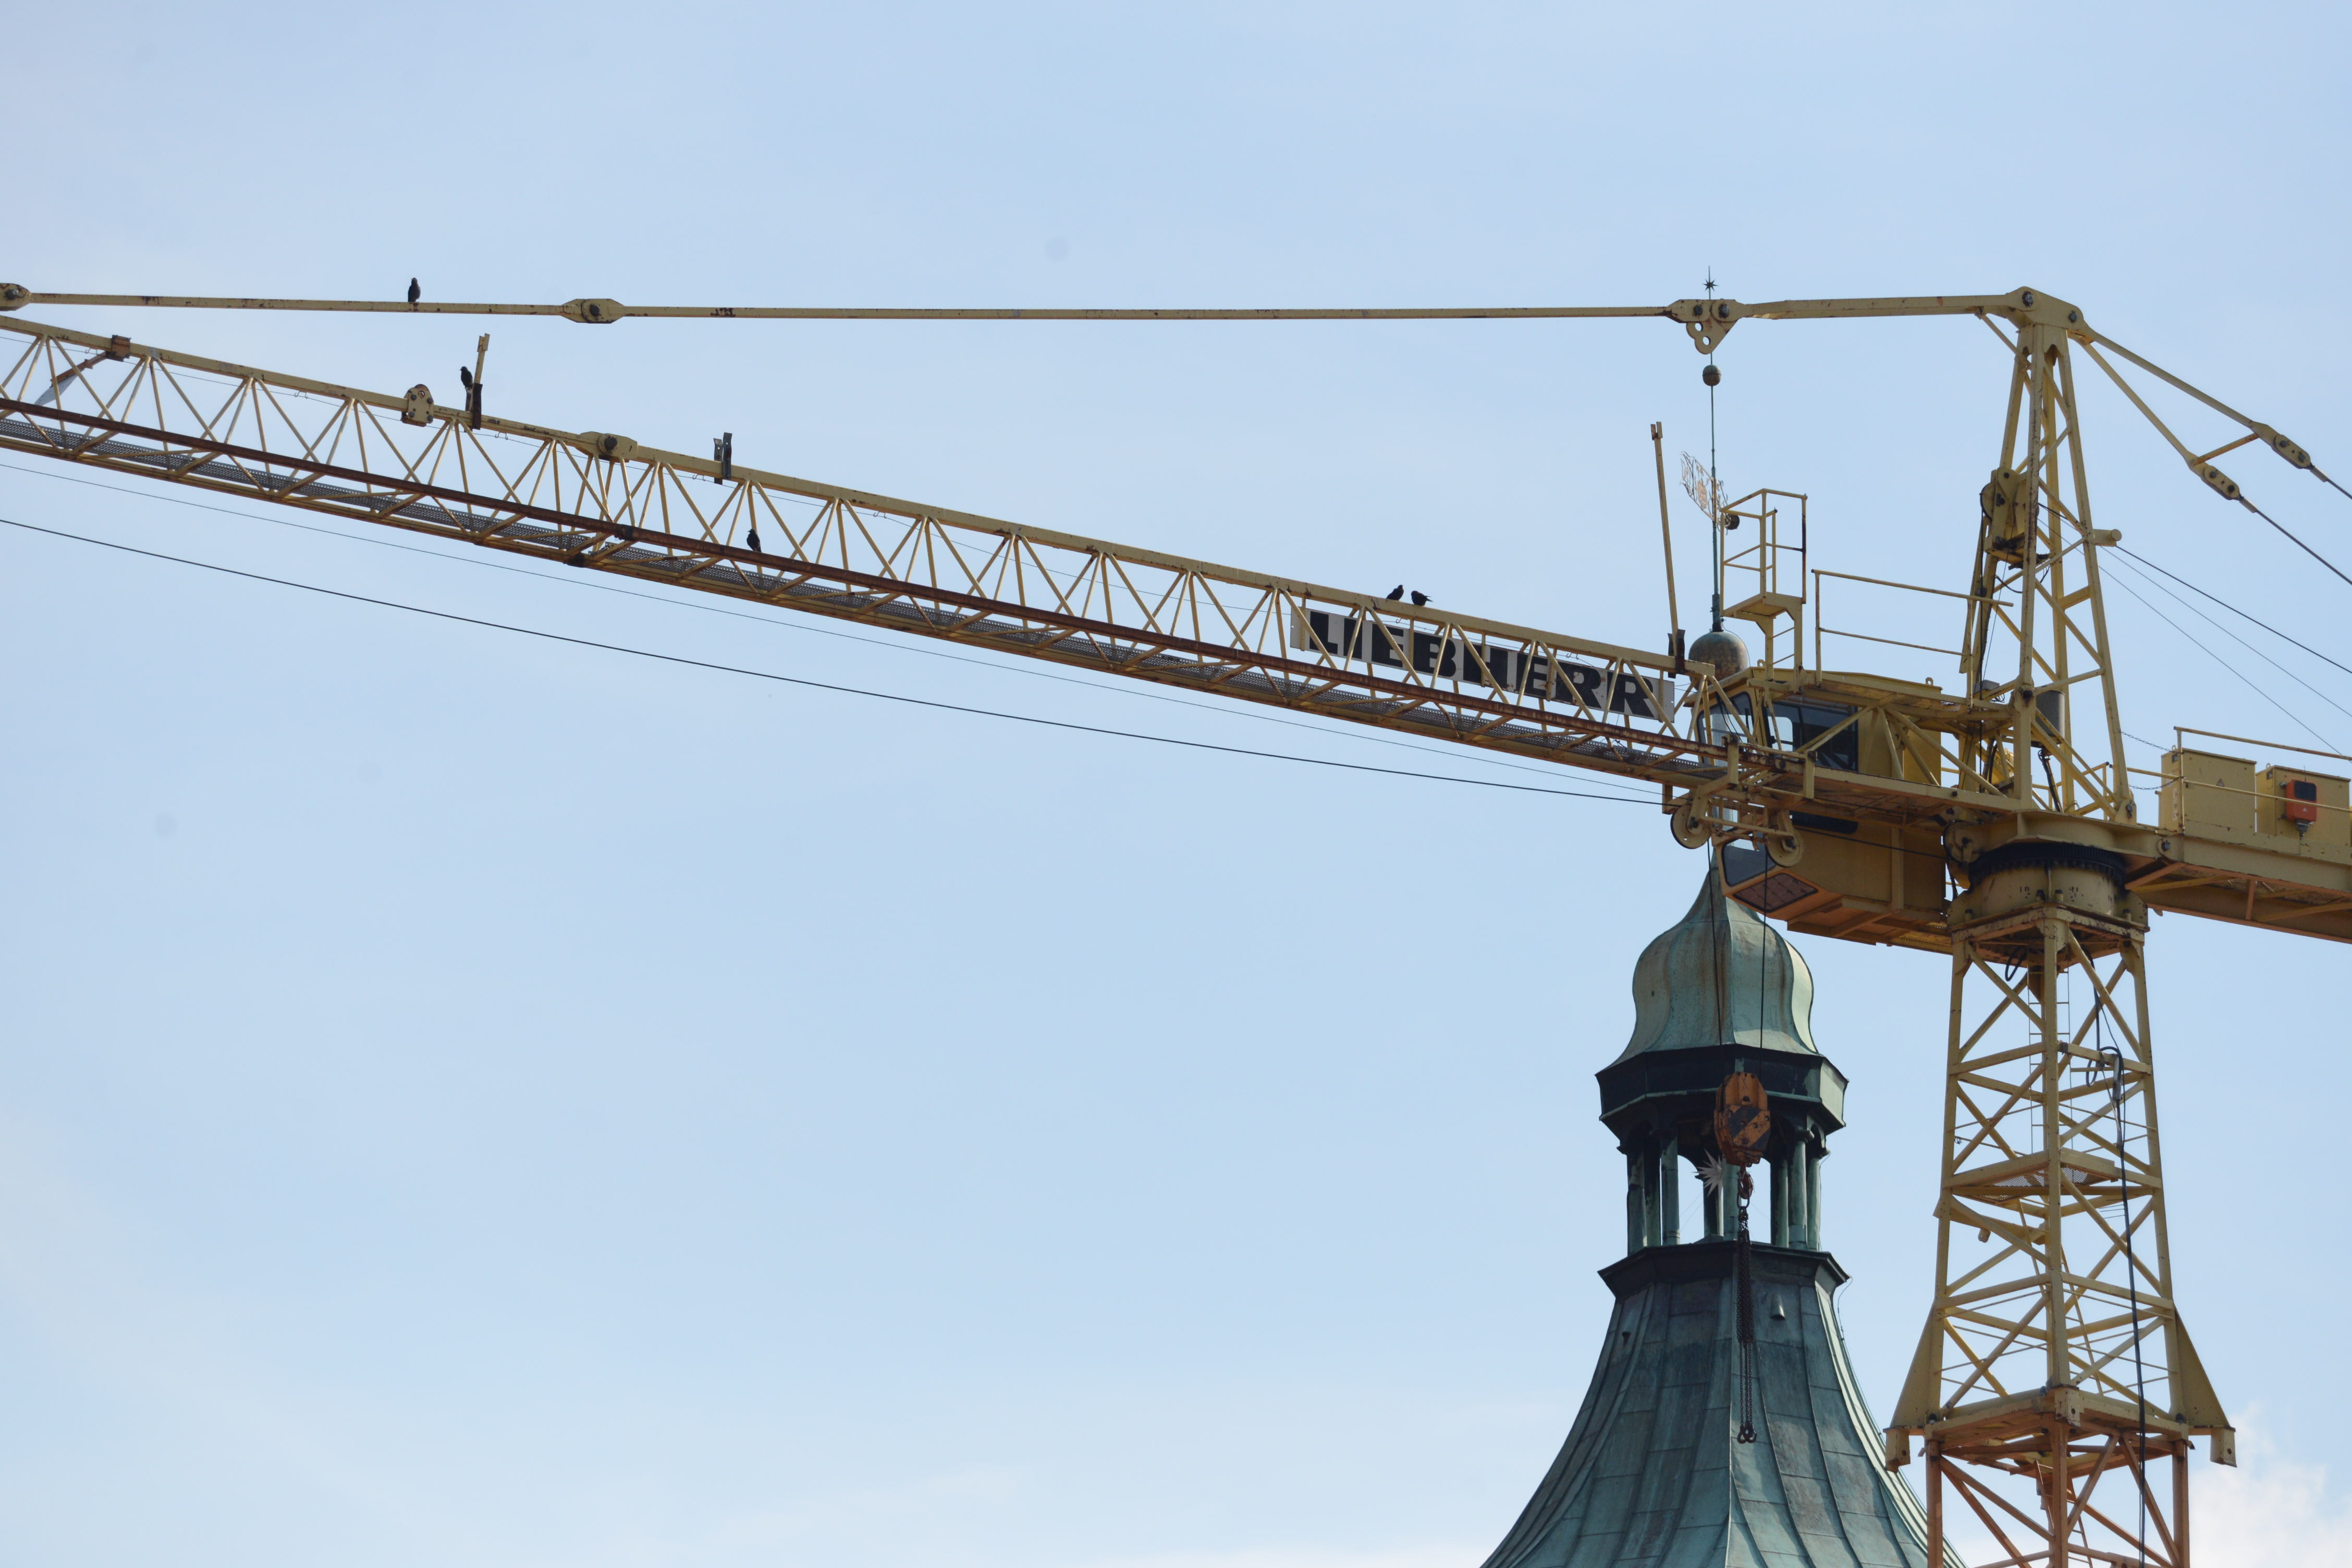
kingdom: Animalia
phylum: Chordata
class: Aves
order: Passeriformes
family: Corvidae
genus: Coloeus
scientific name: Coloeus monedula
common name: Western jackdaw
